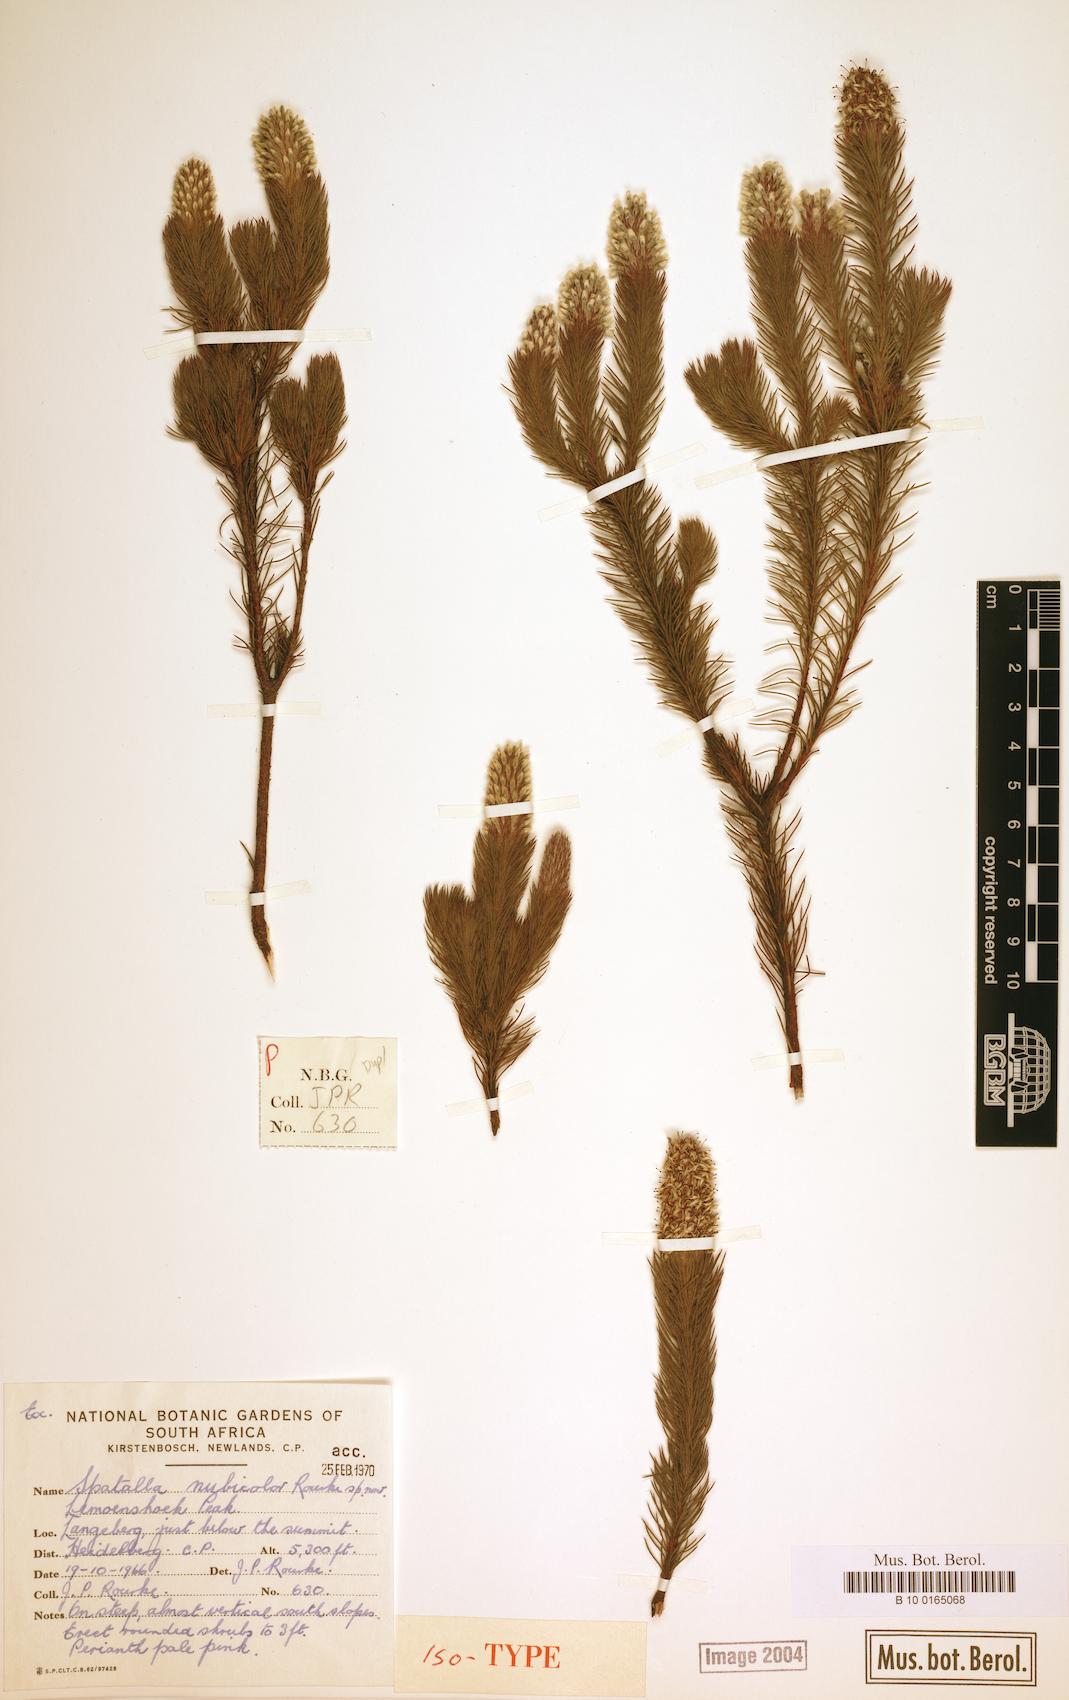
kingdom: Plantae
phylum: Tracheophyta
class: Magnoliopsida
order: Proteales
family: Proteaceae
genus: Spatalla
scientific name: Spatalla nubicola
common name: Medusa spoon
